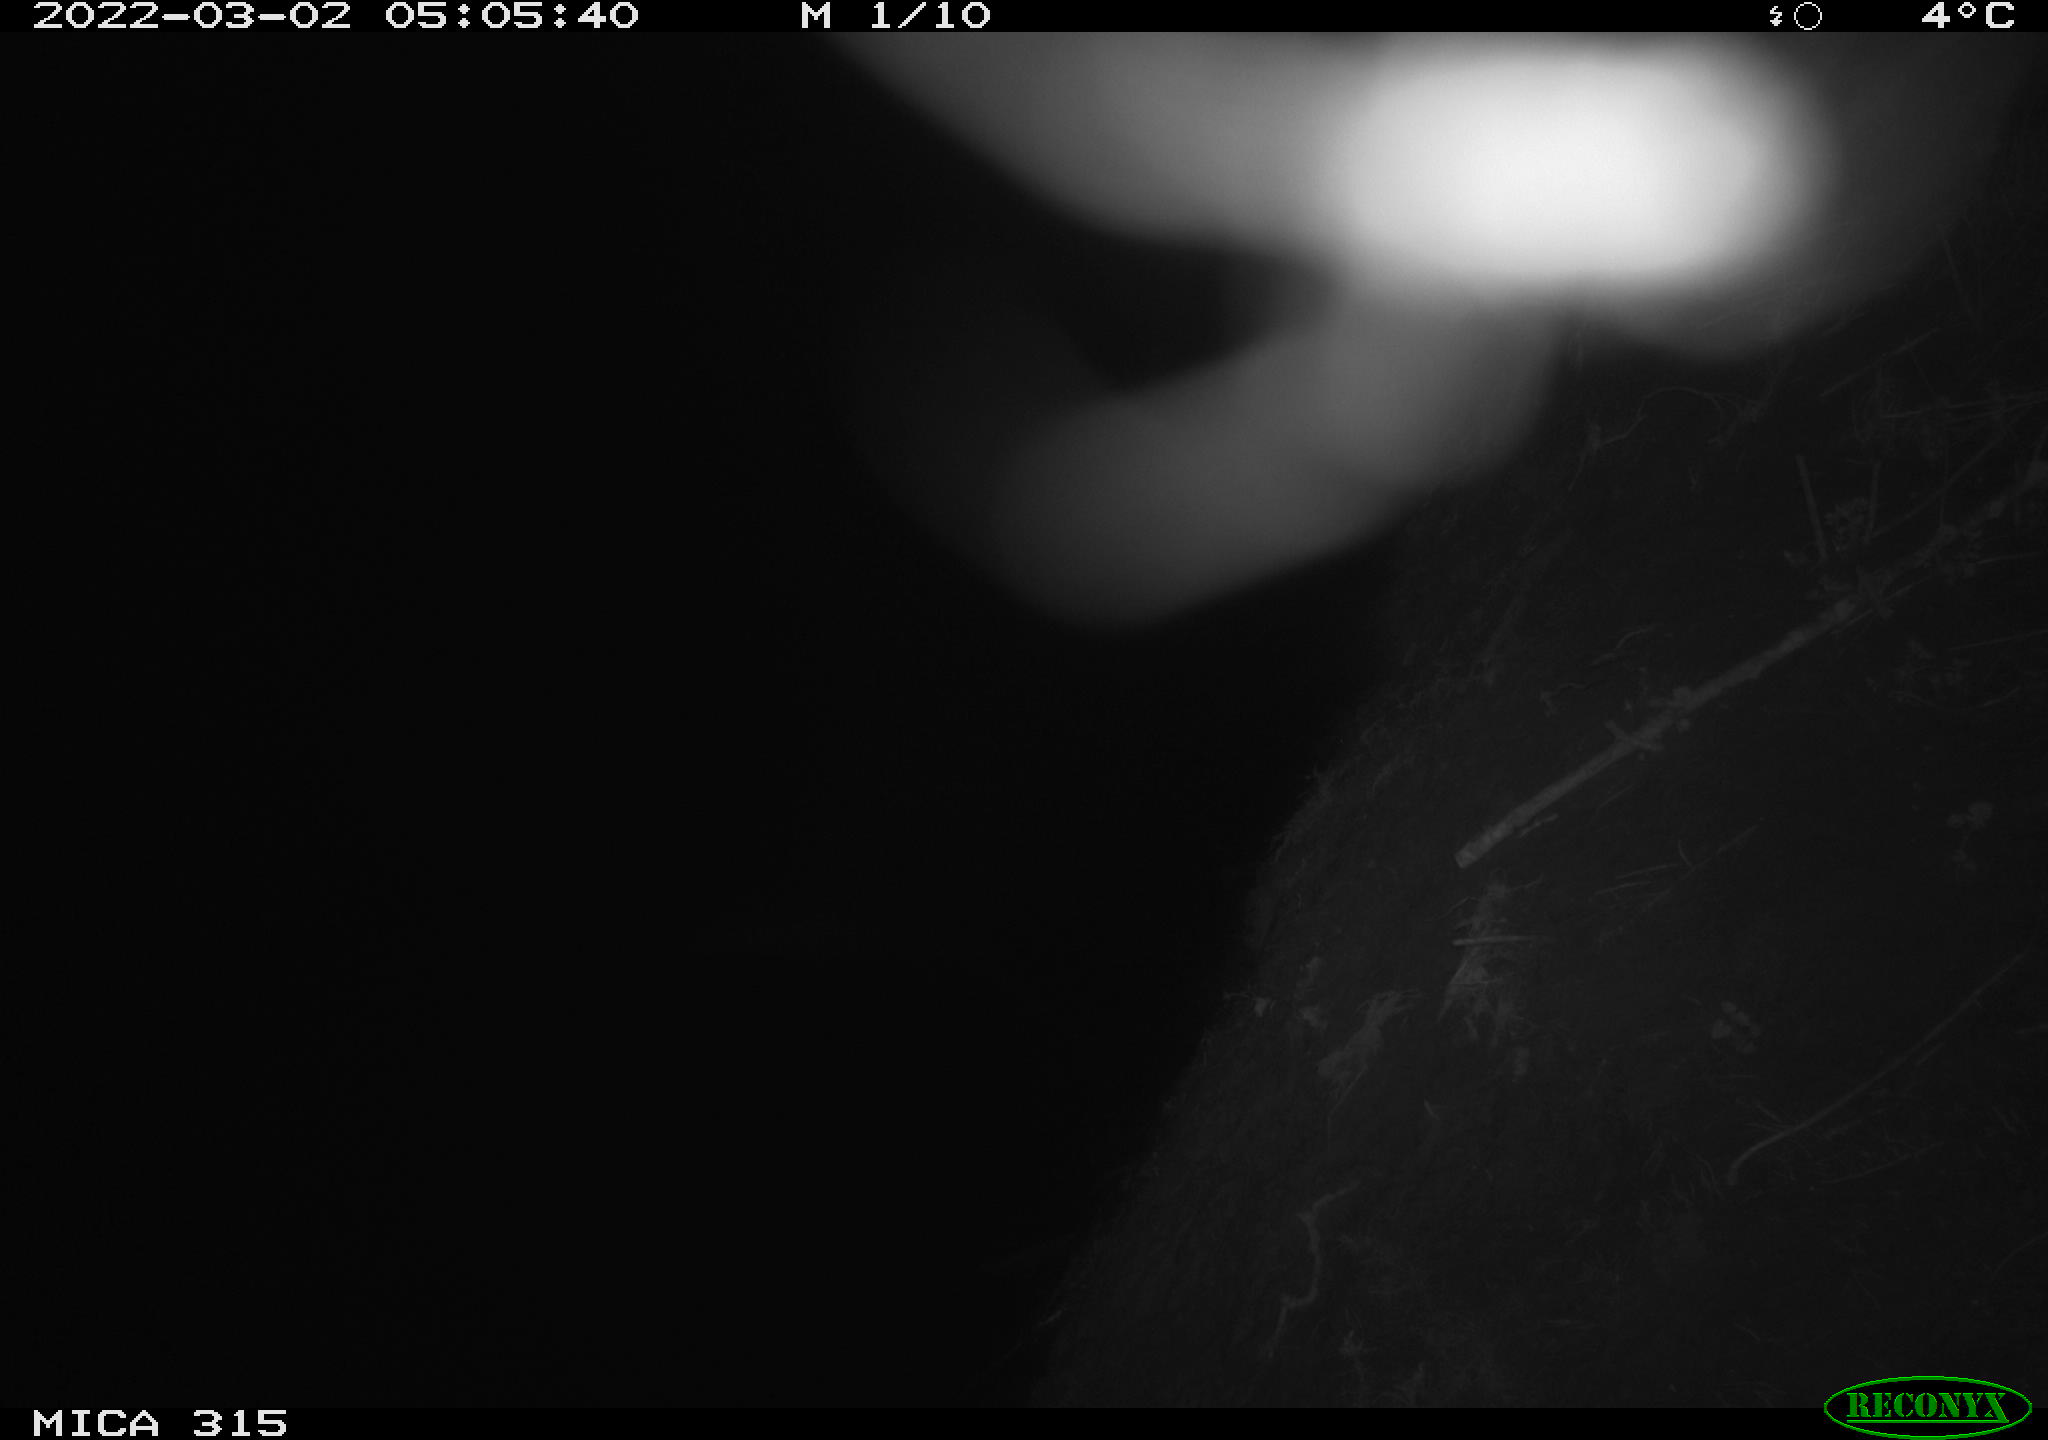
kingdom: Animalia
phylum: Chordata
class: Mammalia
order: Rodentia
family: Muridae
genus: Rattus
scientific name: Rattus norvegicus
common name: Brown rat
